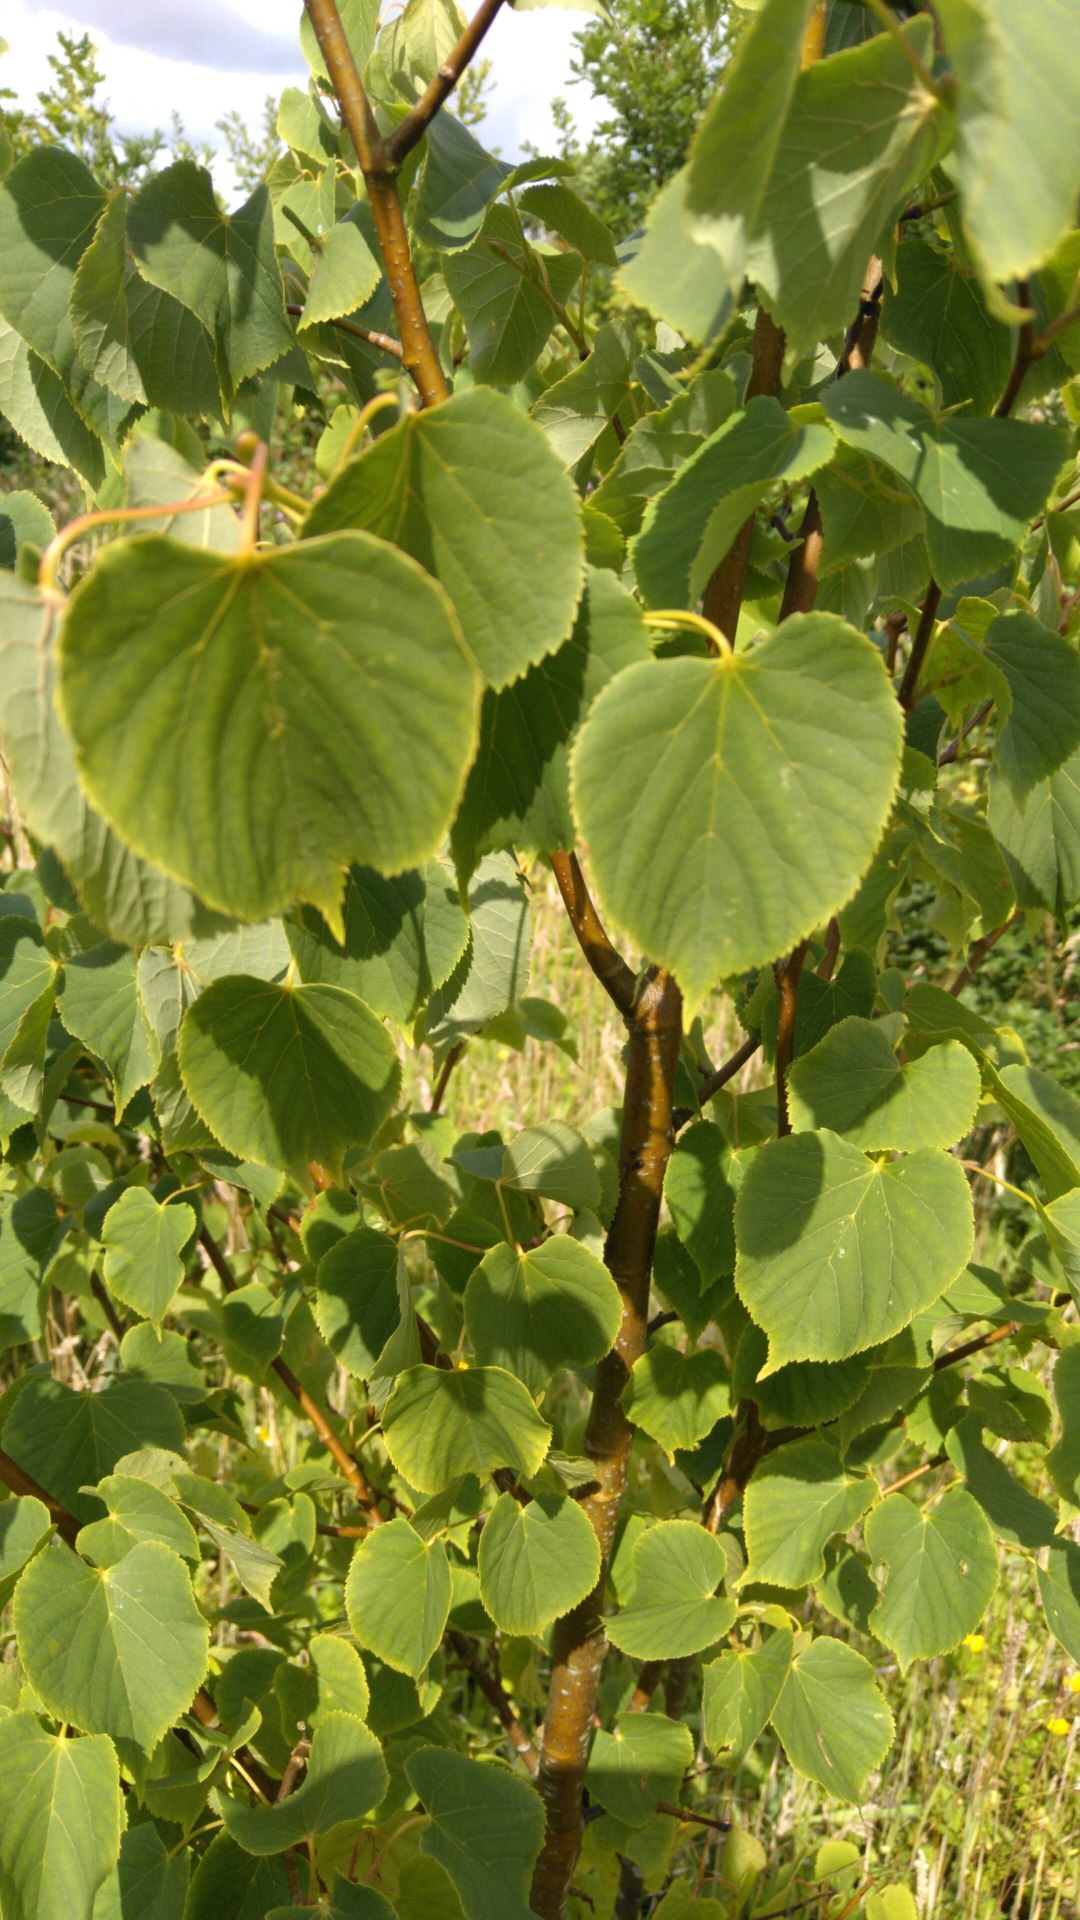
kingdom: Plantae
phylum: Tracheophyta
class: Magnoliopsida
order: Malvales
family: Malvaceae
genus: Tilia
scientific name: Tilia cordata
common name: Småbladet lind
